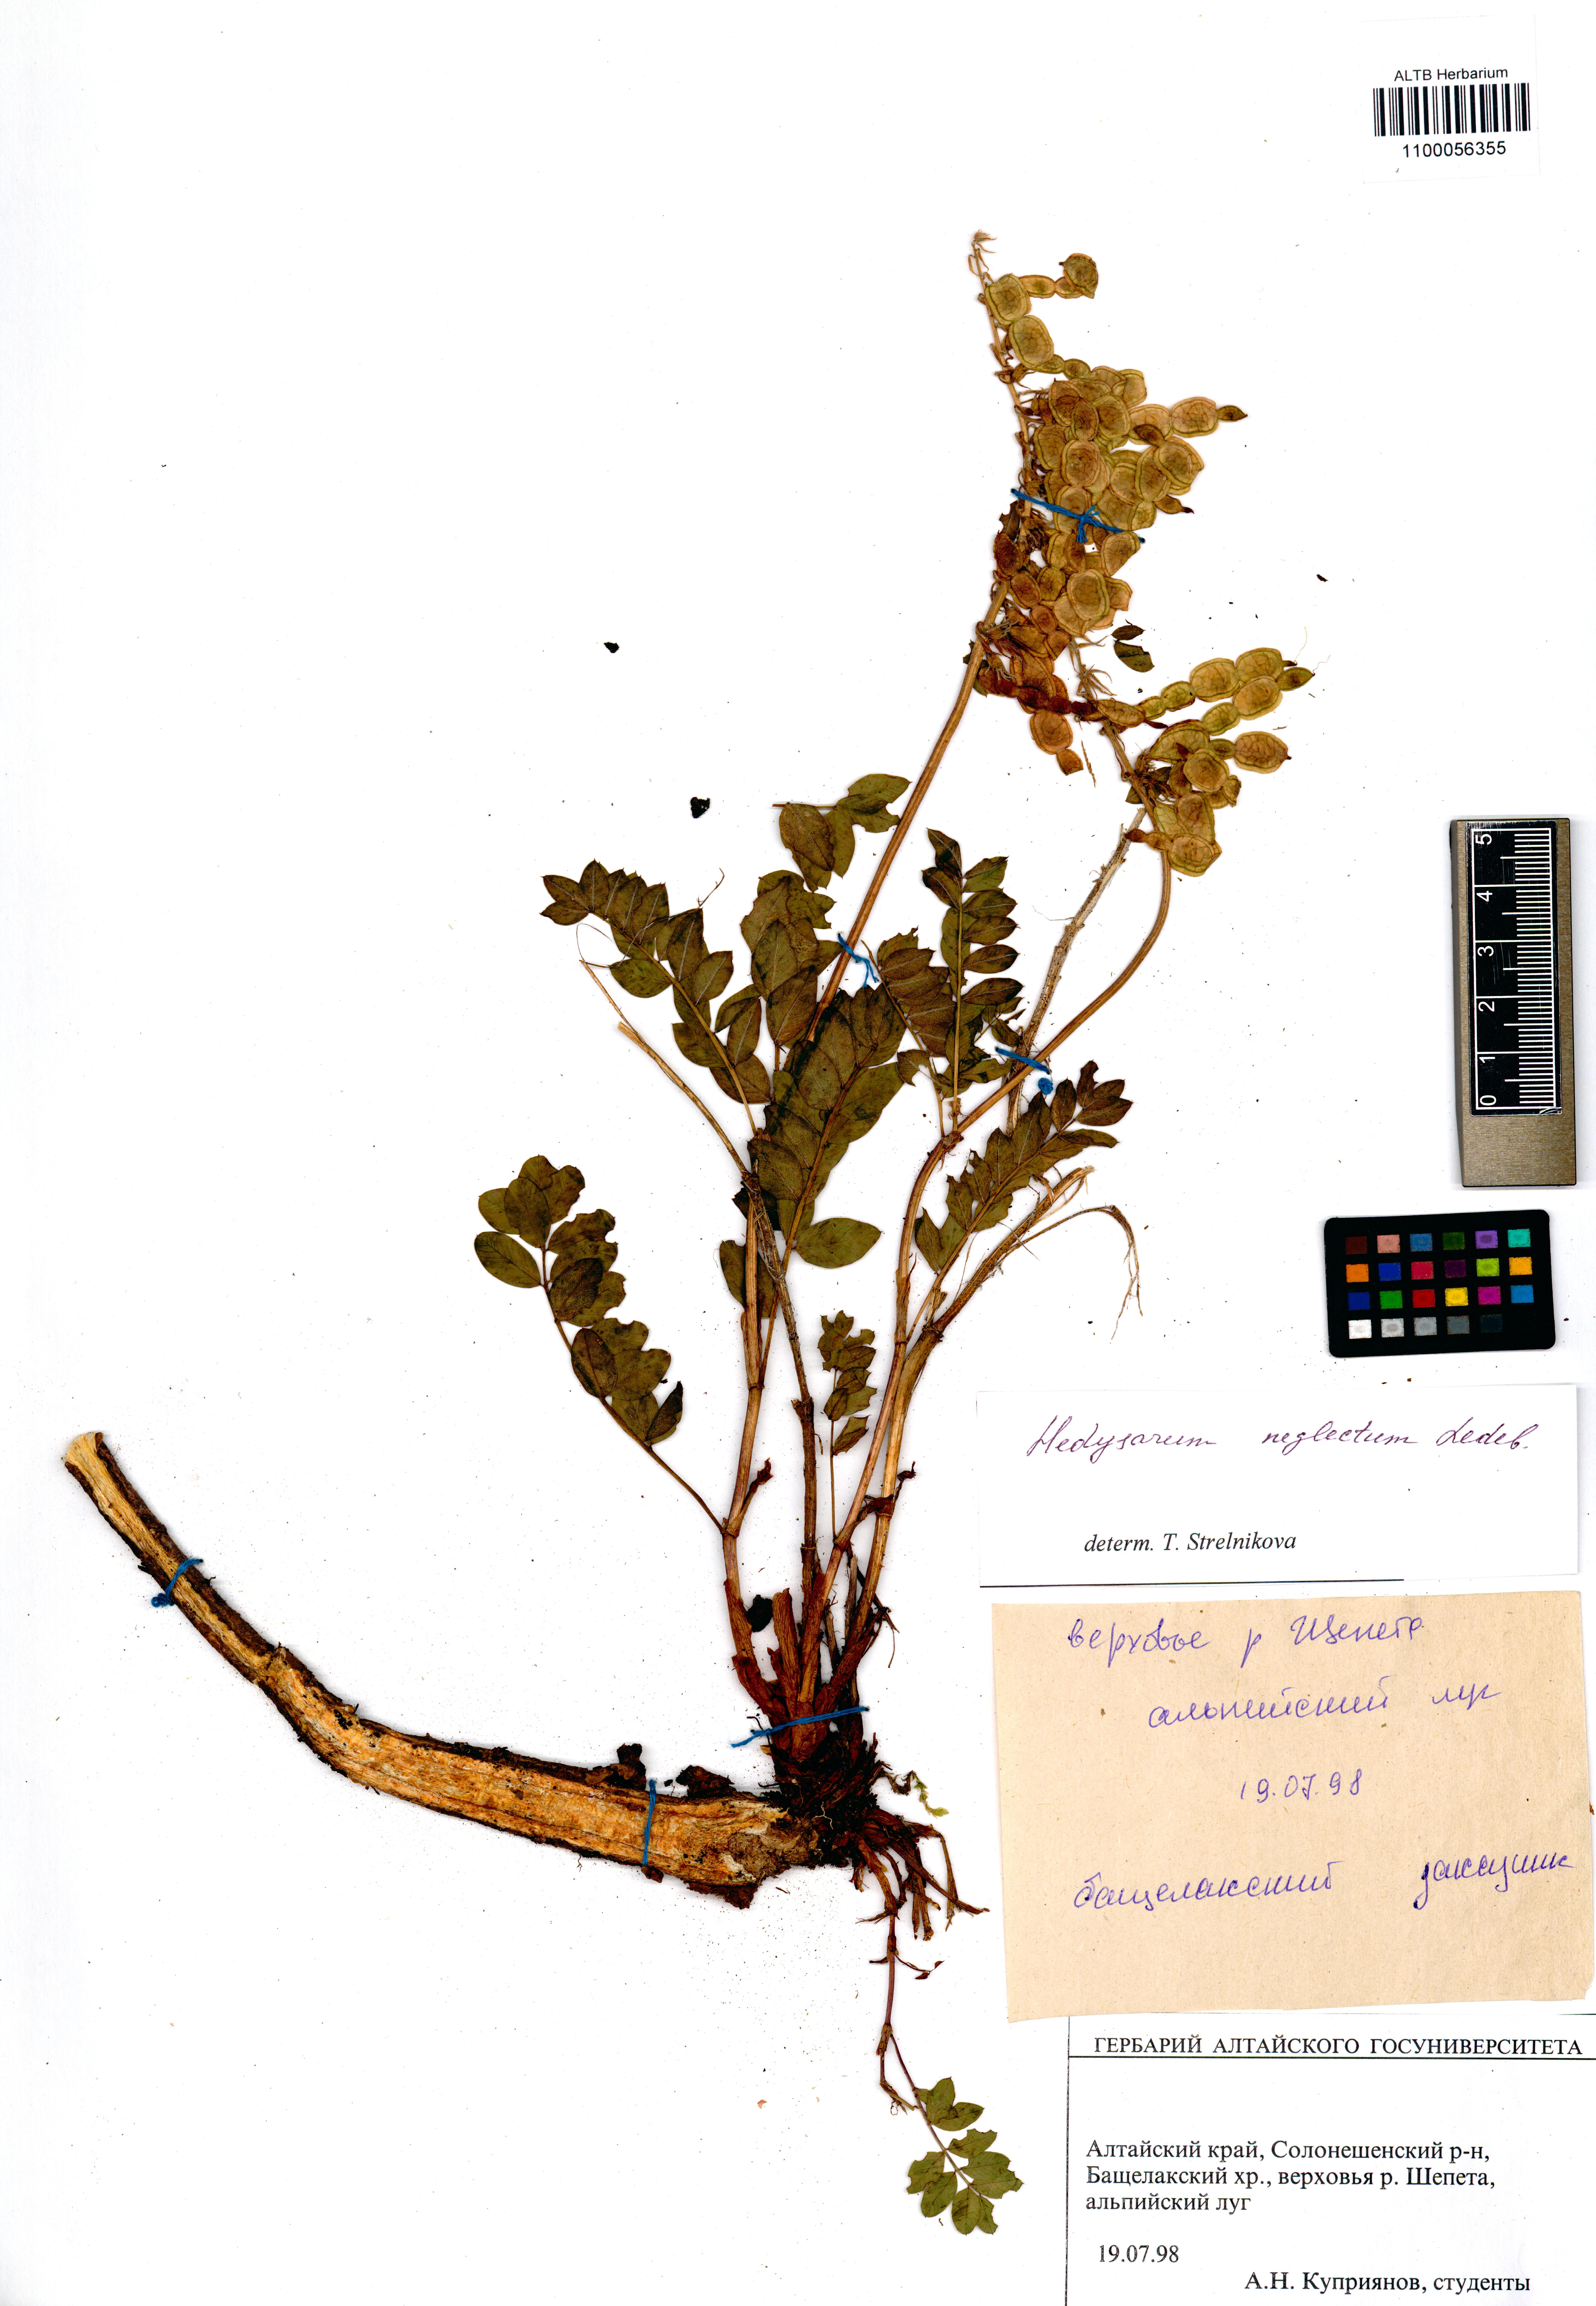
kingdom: Plantae
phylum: Tracheophyta
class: Magnoliopsida
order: Fabales
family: Fabaceae
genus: Hedysarum
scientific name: Hedysarum neglectum
